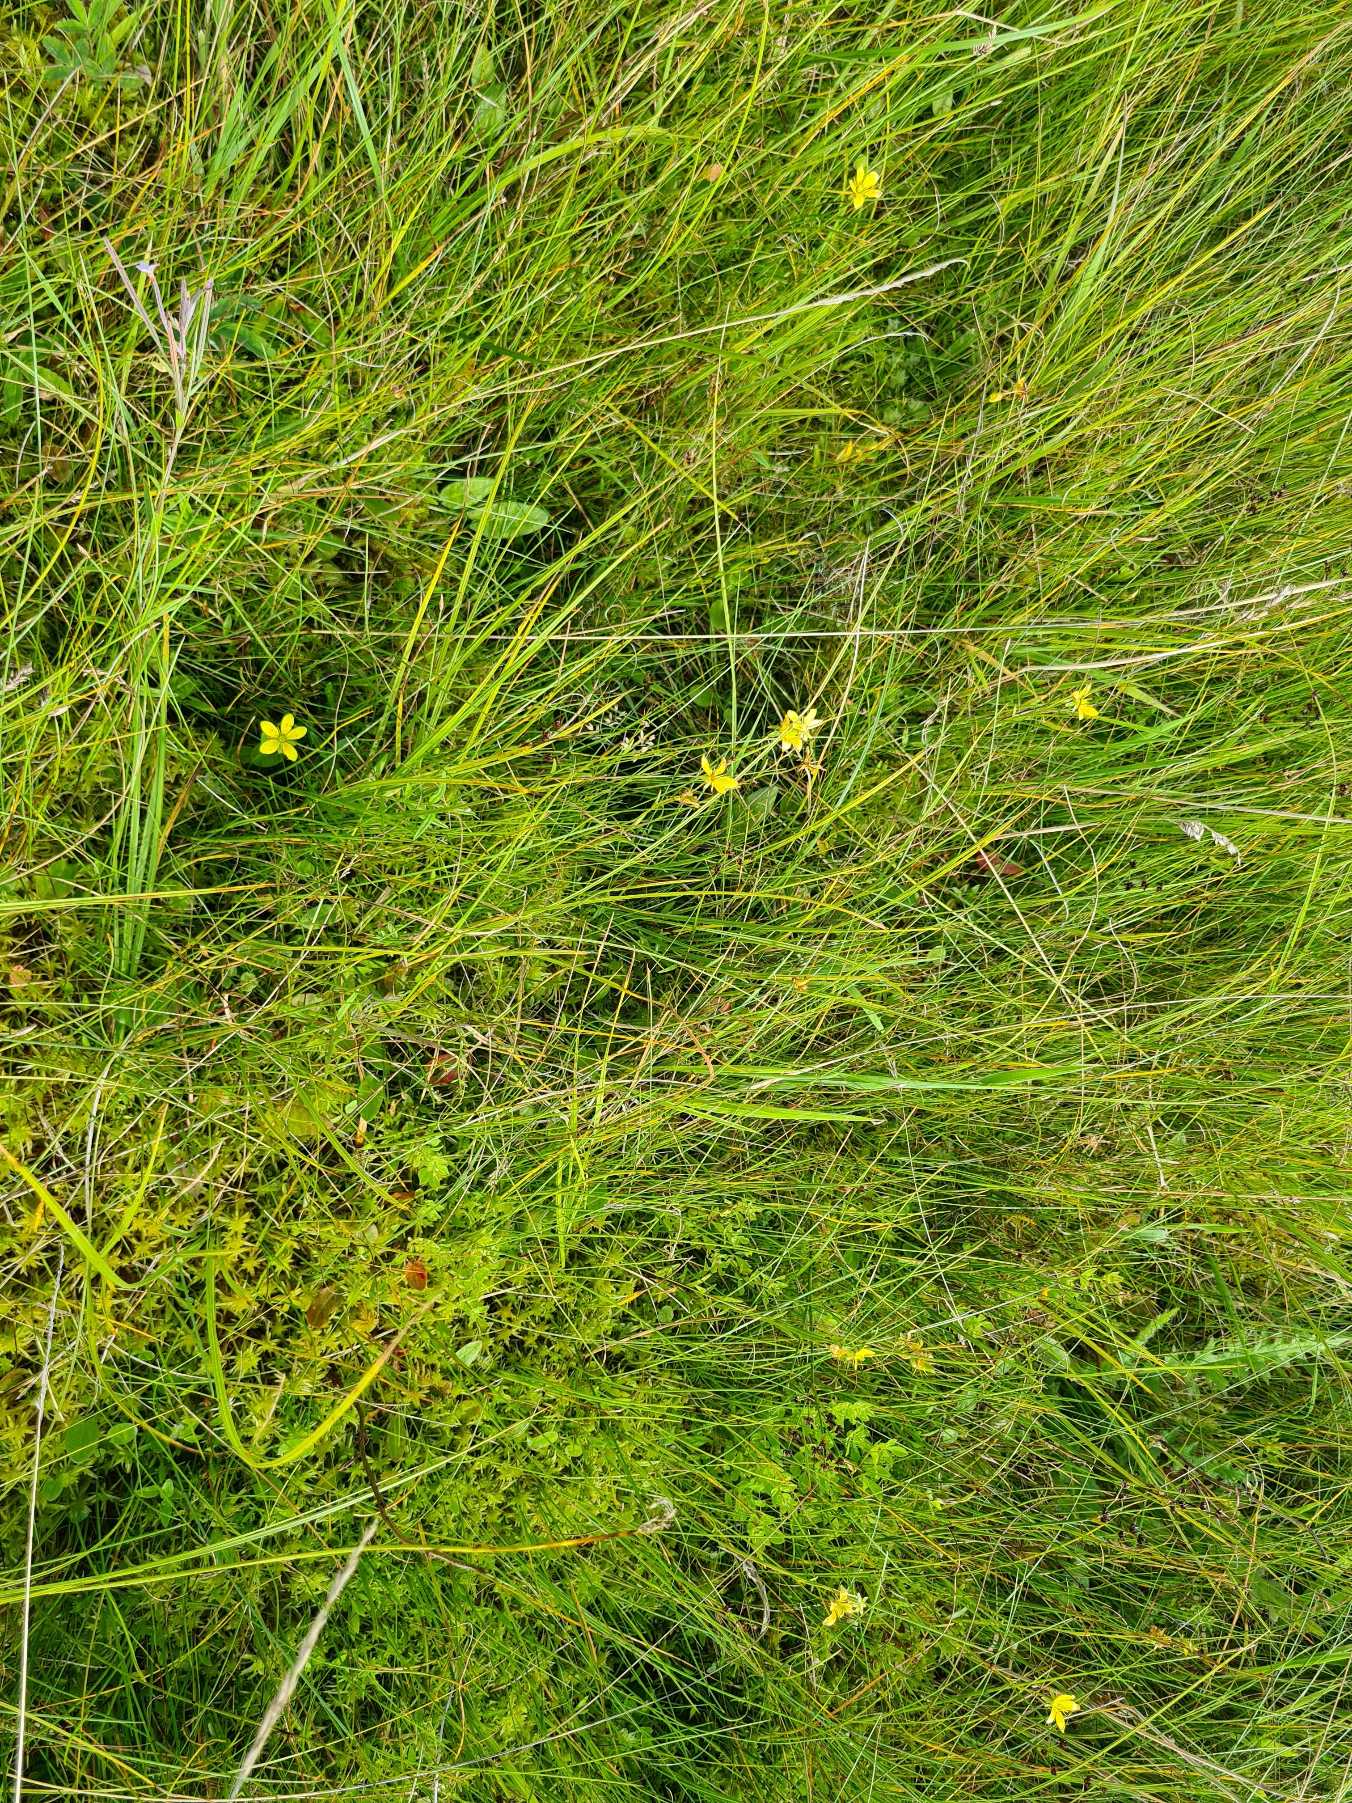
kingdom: Plantae
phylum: Tracheophyta
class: Magnoliopsida
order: Saxifragales
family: Saxifragaceae
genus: Saxifraga
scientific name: Saxifraga hirculus
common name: Gul stenbræk
